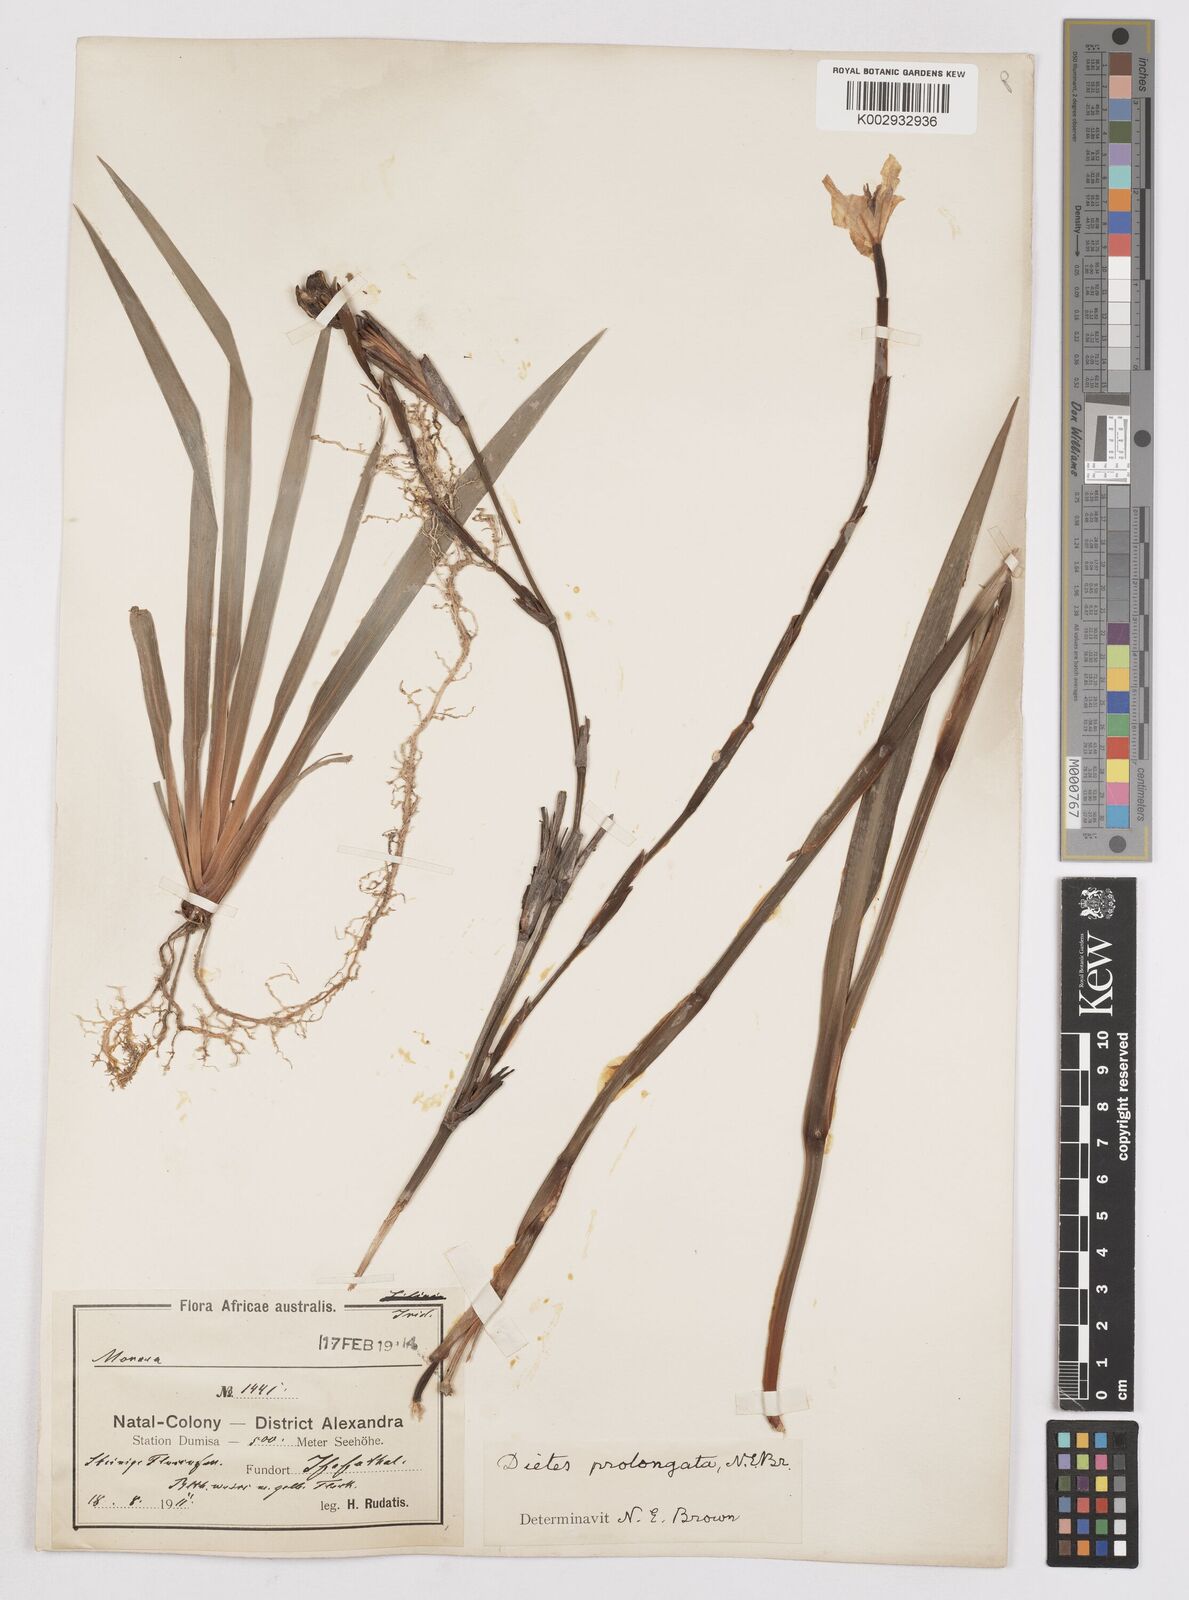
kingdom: Plantae
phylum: Tracheophyta
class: Liliopsida
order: Asparagales
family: Iridaceae
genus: Dietes
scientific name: Dietes iridioides
